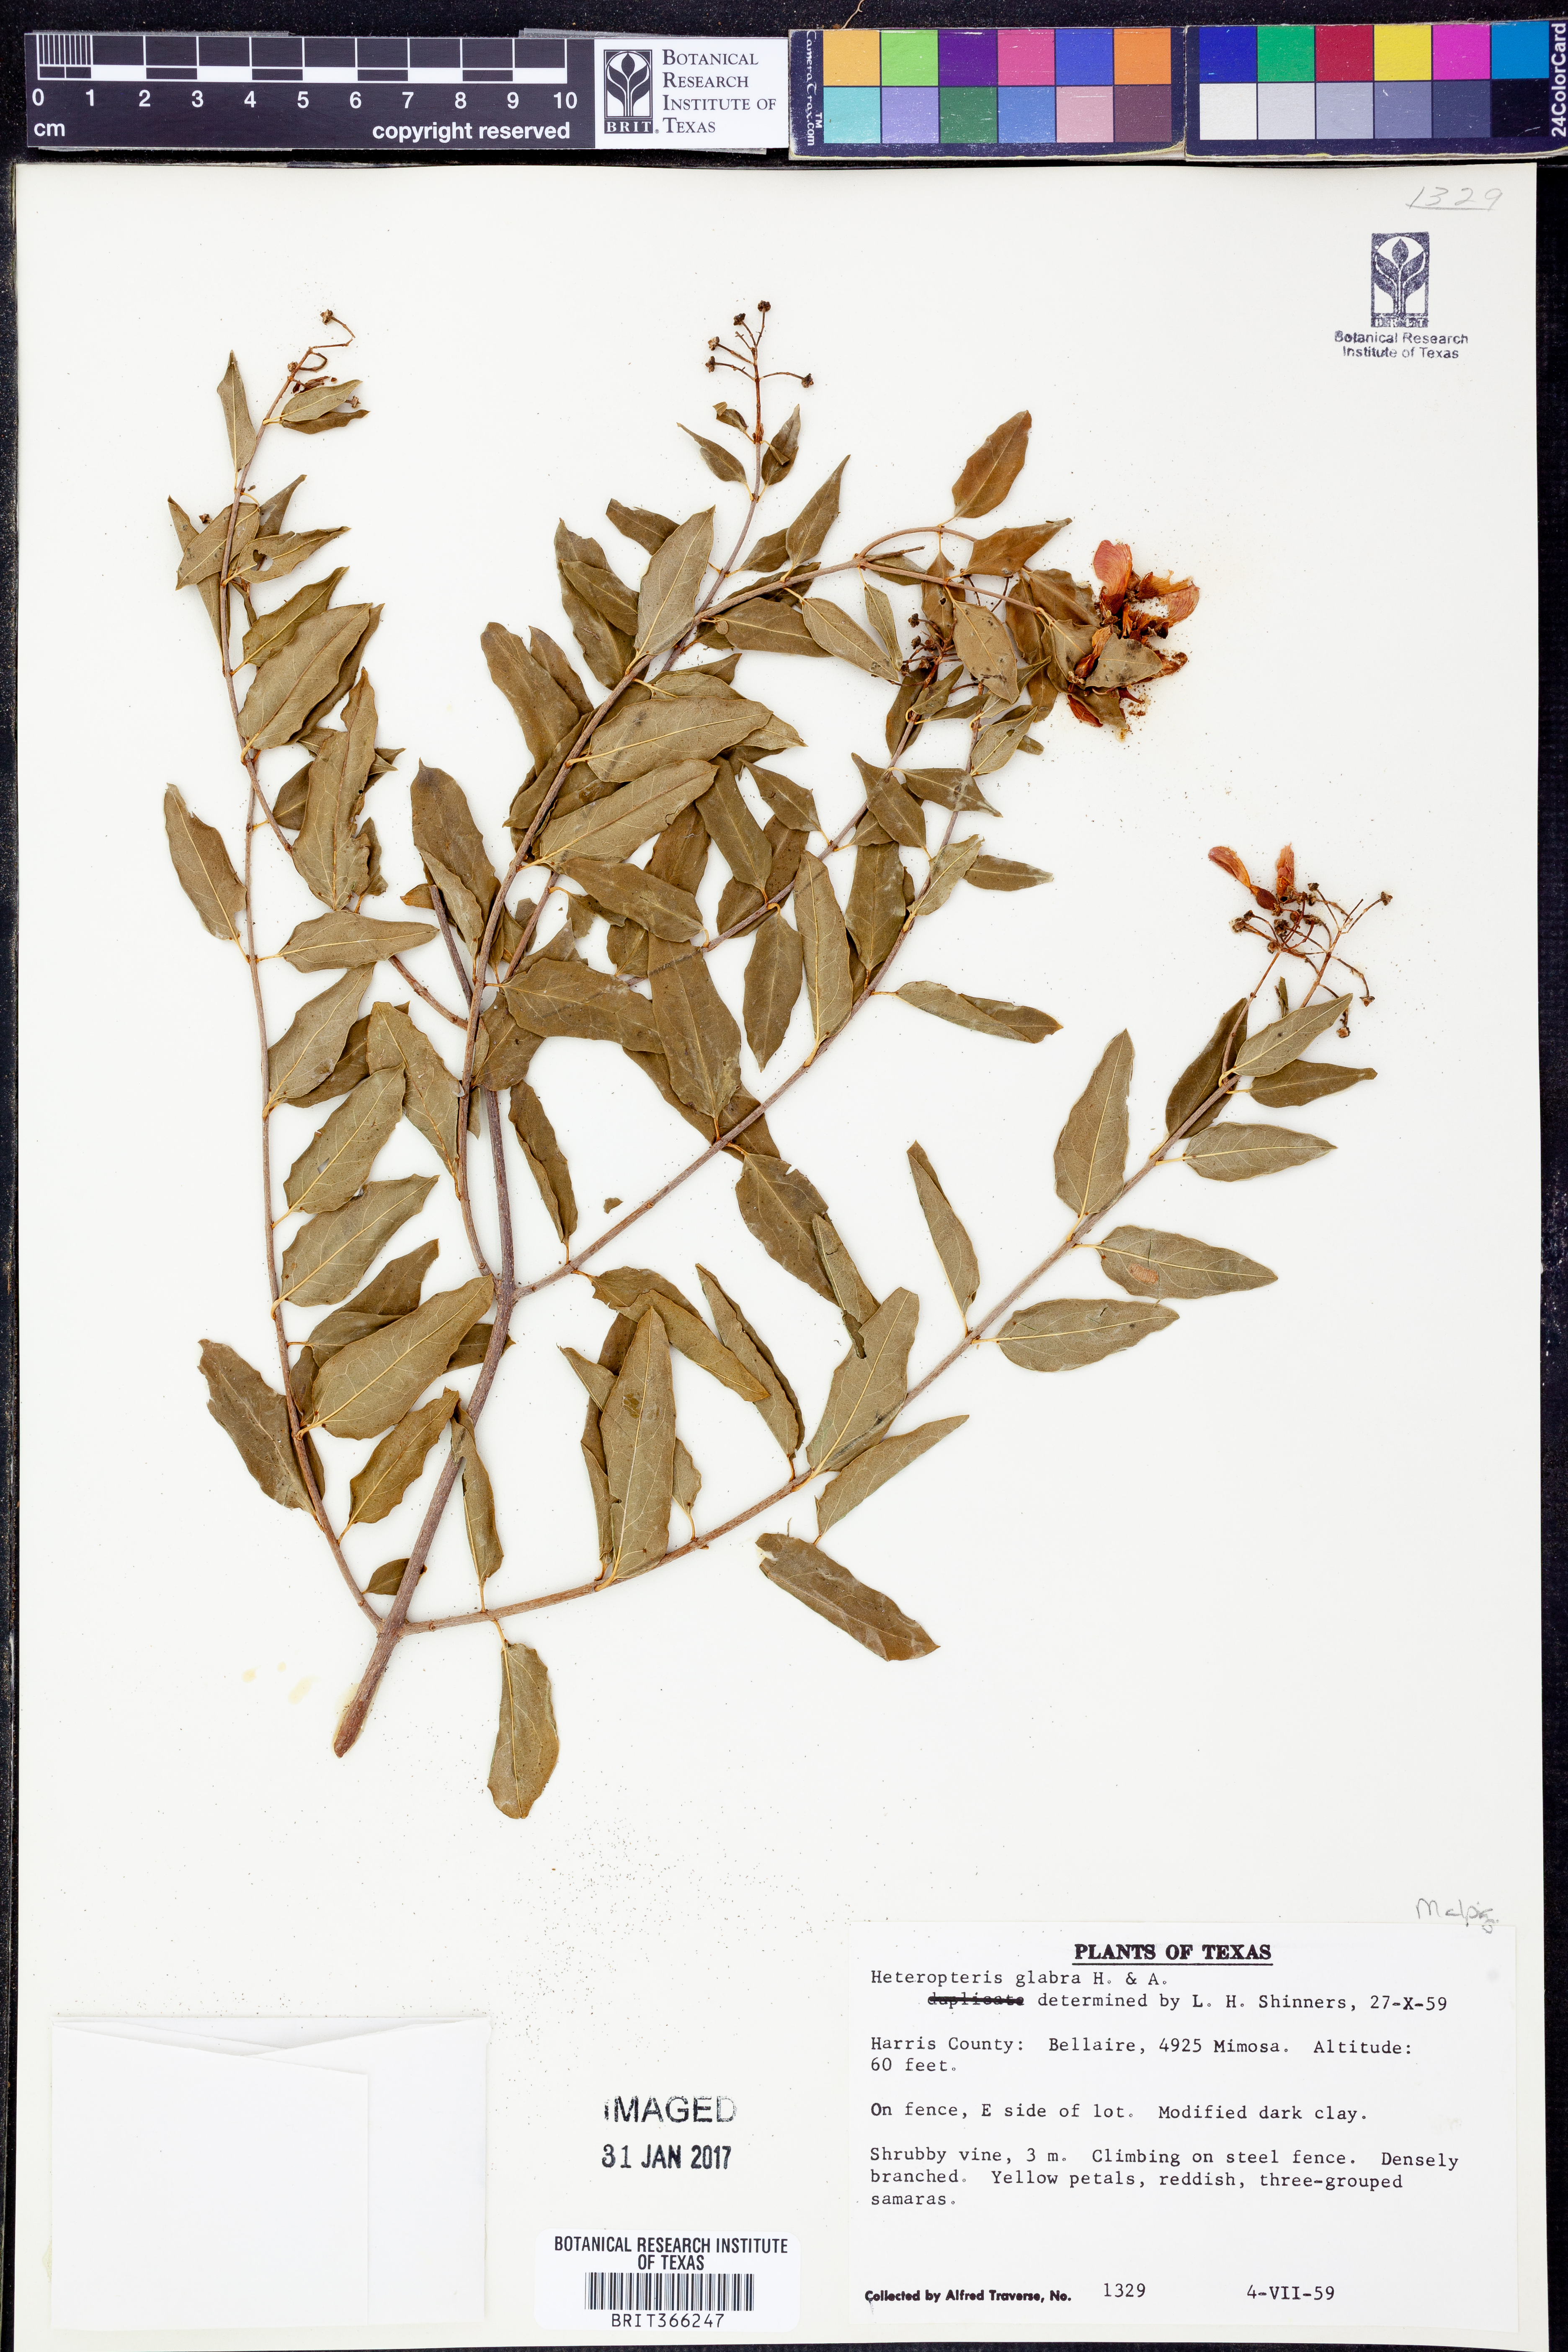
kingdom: Plantae
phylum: Tracheophyta
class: Magnoliopsida
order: Malpighiales
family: Malpighiaceae
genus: Malpighia
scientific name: Malpighia glabra
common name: Barbados cherry
